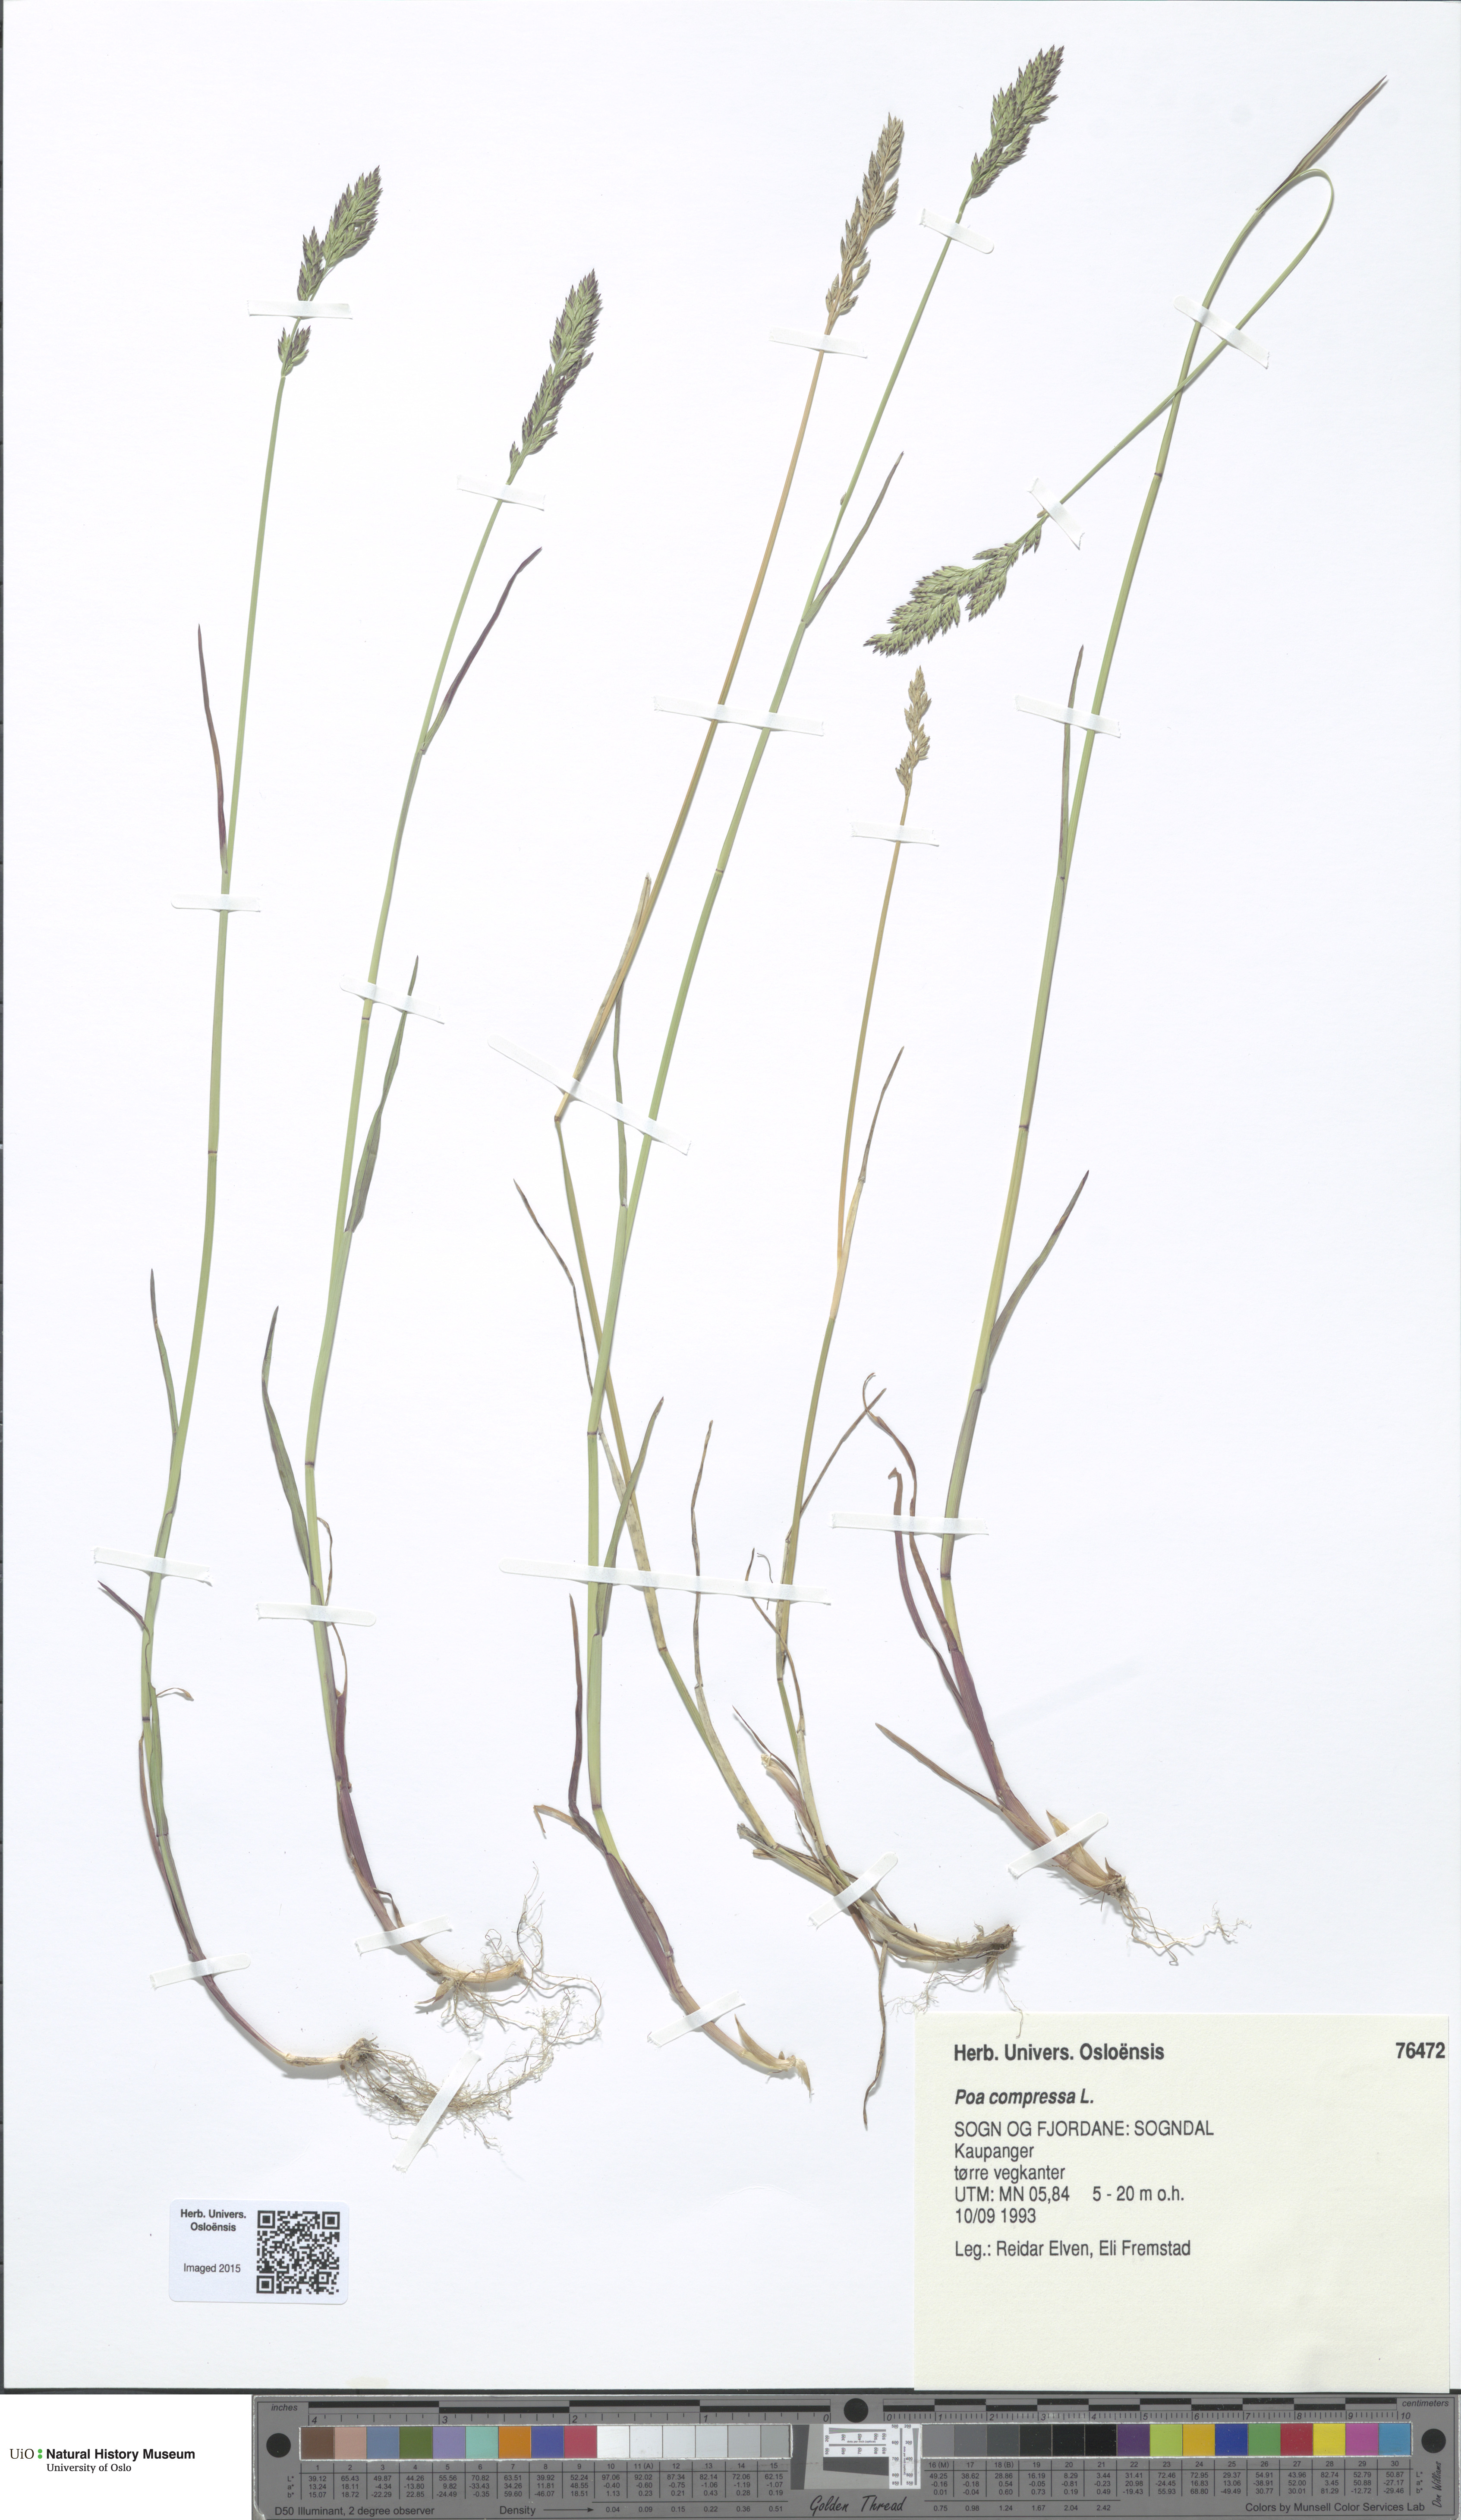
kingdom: Plantae
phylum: Tracheophyta
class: Liliopsida
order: Poales
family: Poaceae
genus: Poa
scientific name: Poa compressa
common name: Canada bluegrass
